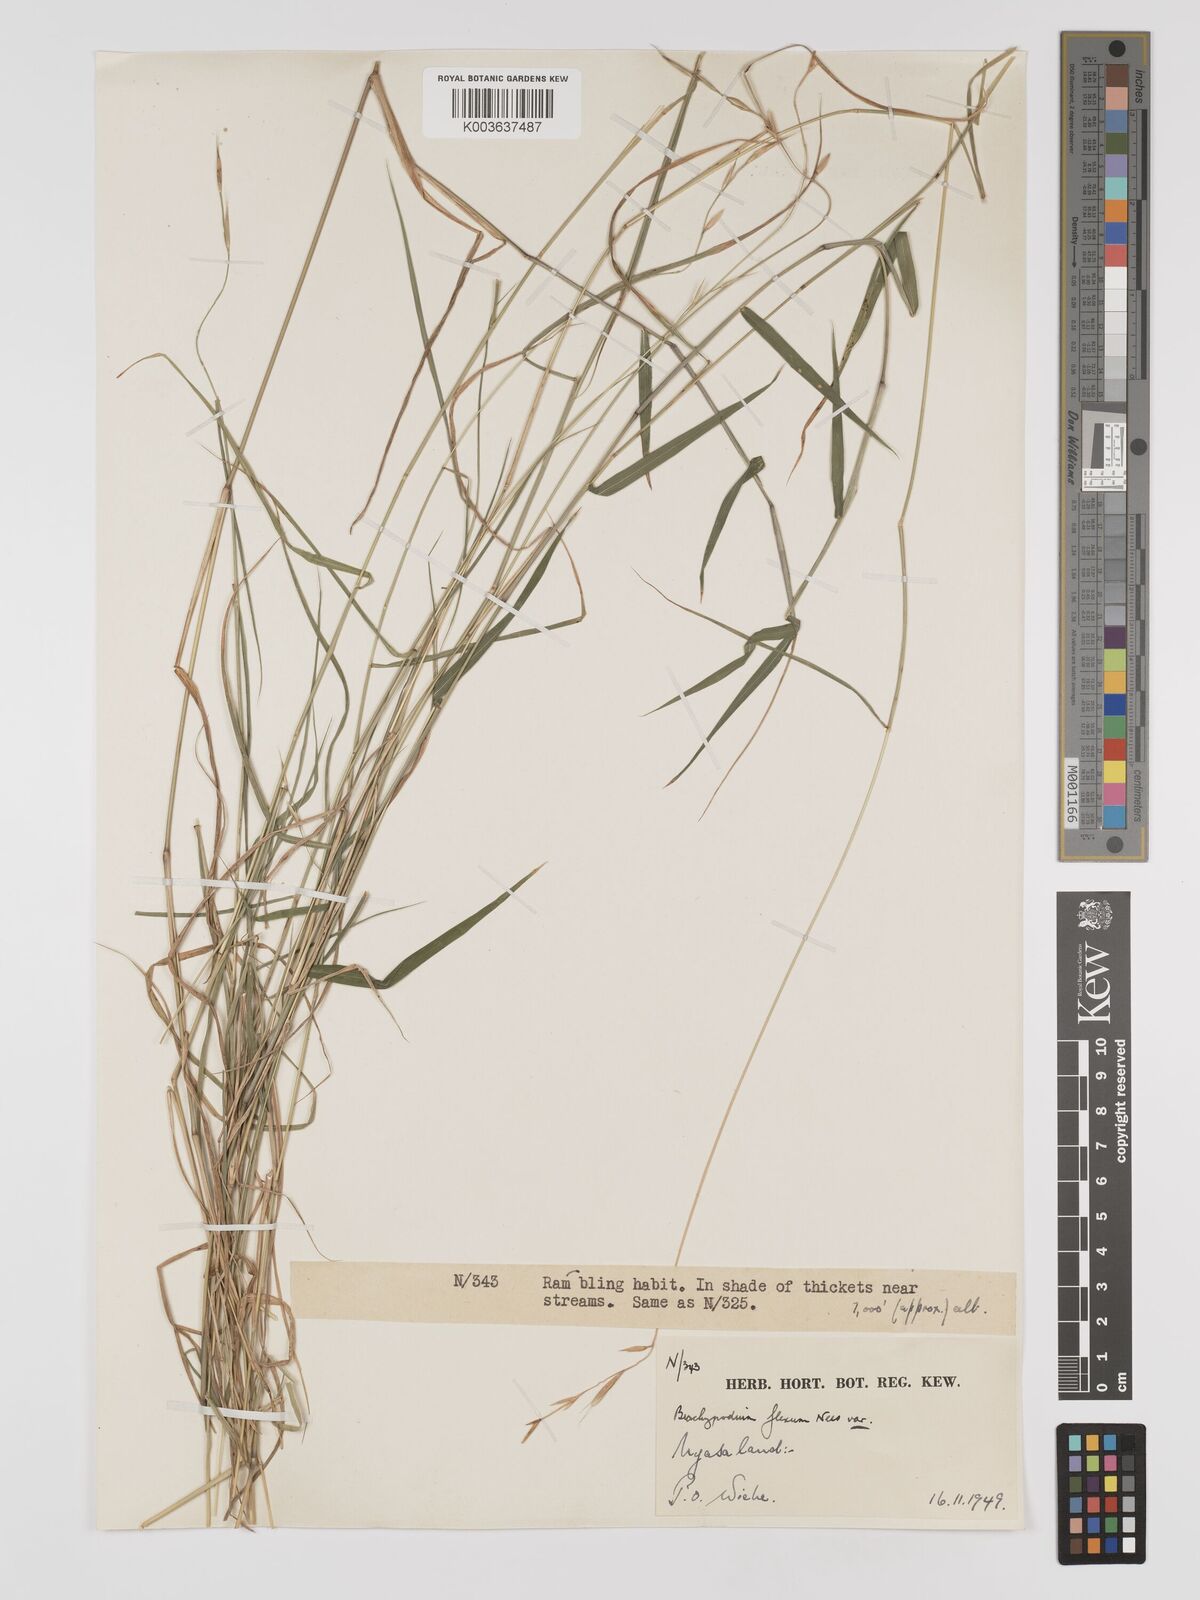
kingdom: Plantae
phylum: Tracheophyta
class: Liliopsida
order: Poales
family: Poaceae
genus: Brachypodium
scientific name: Brachypodium flexum
